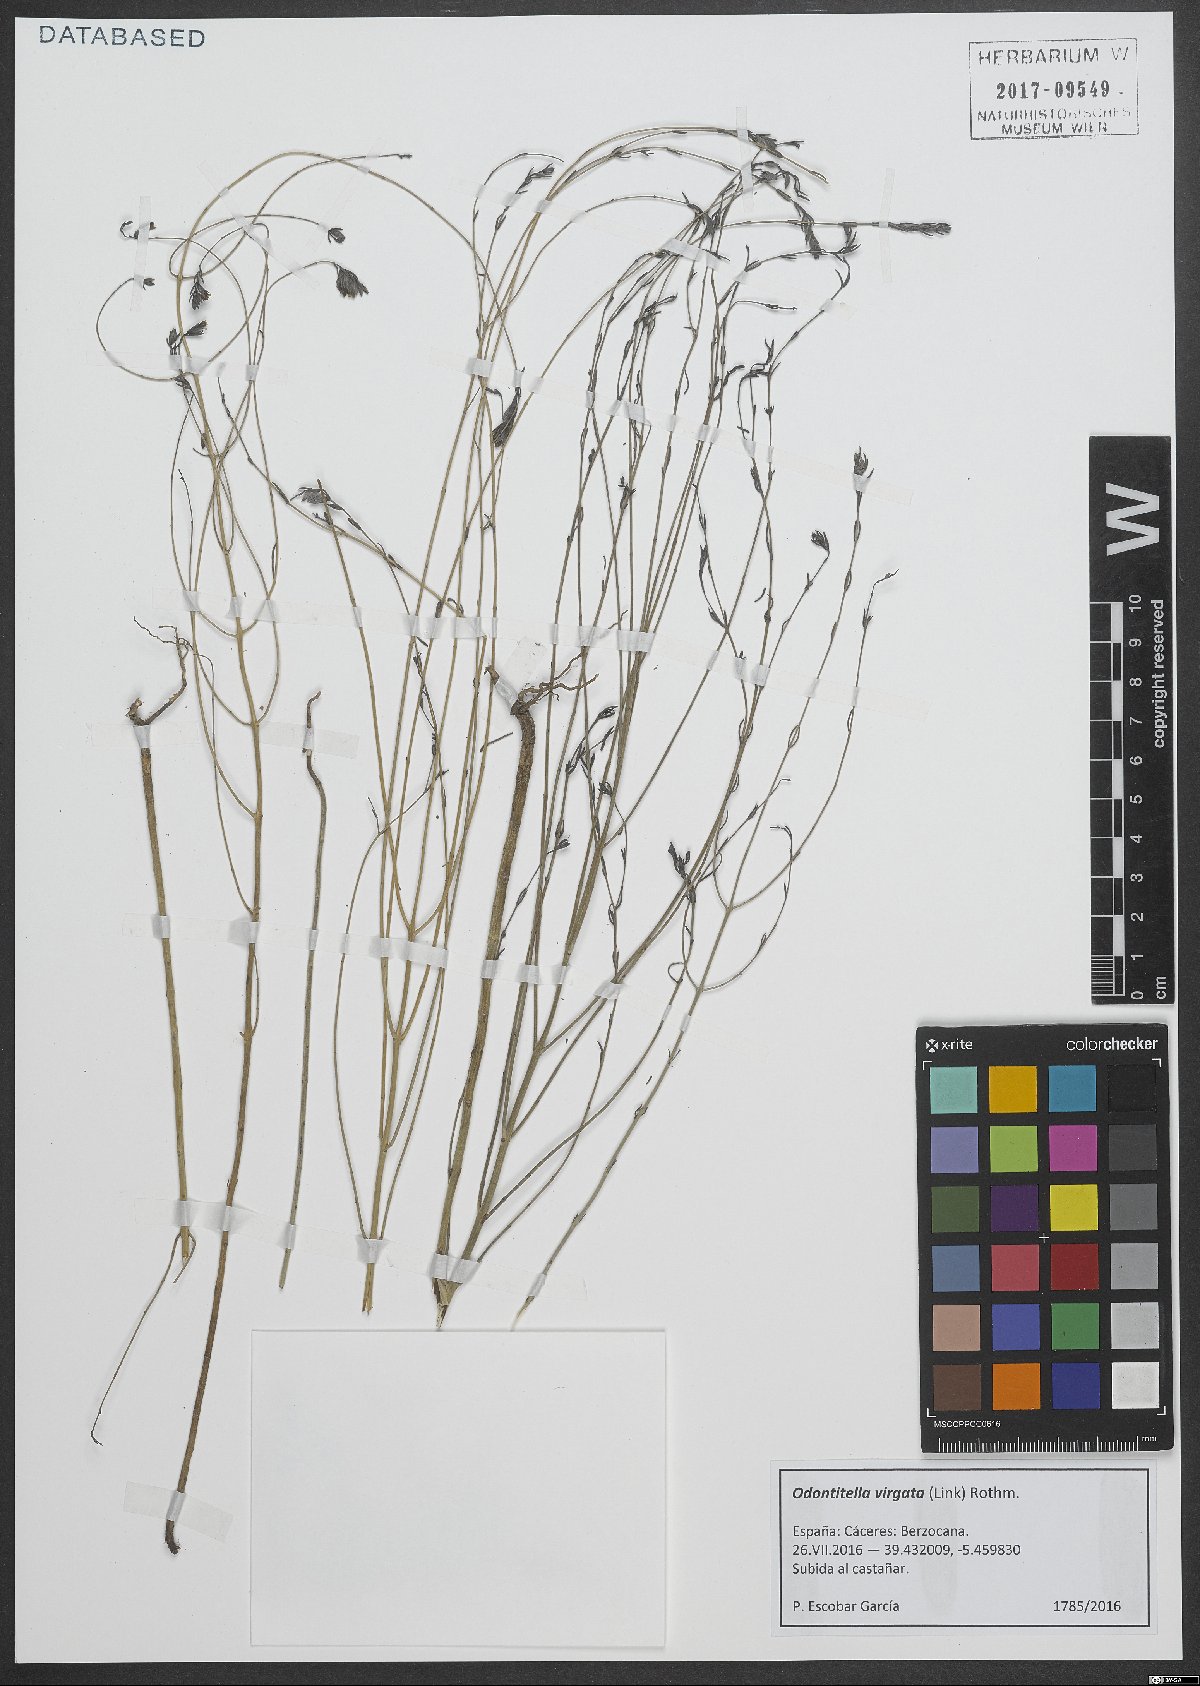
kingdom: Plantae
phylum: Tracheophyta
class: Magnoliopsida
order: Lamiales
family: Orobanchaceae
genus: Odontitella
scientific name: Odontitella virgata
